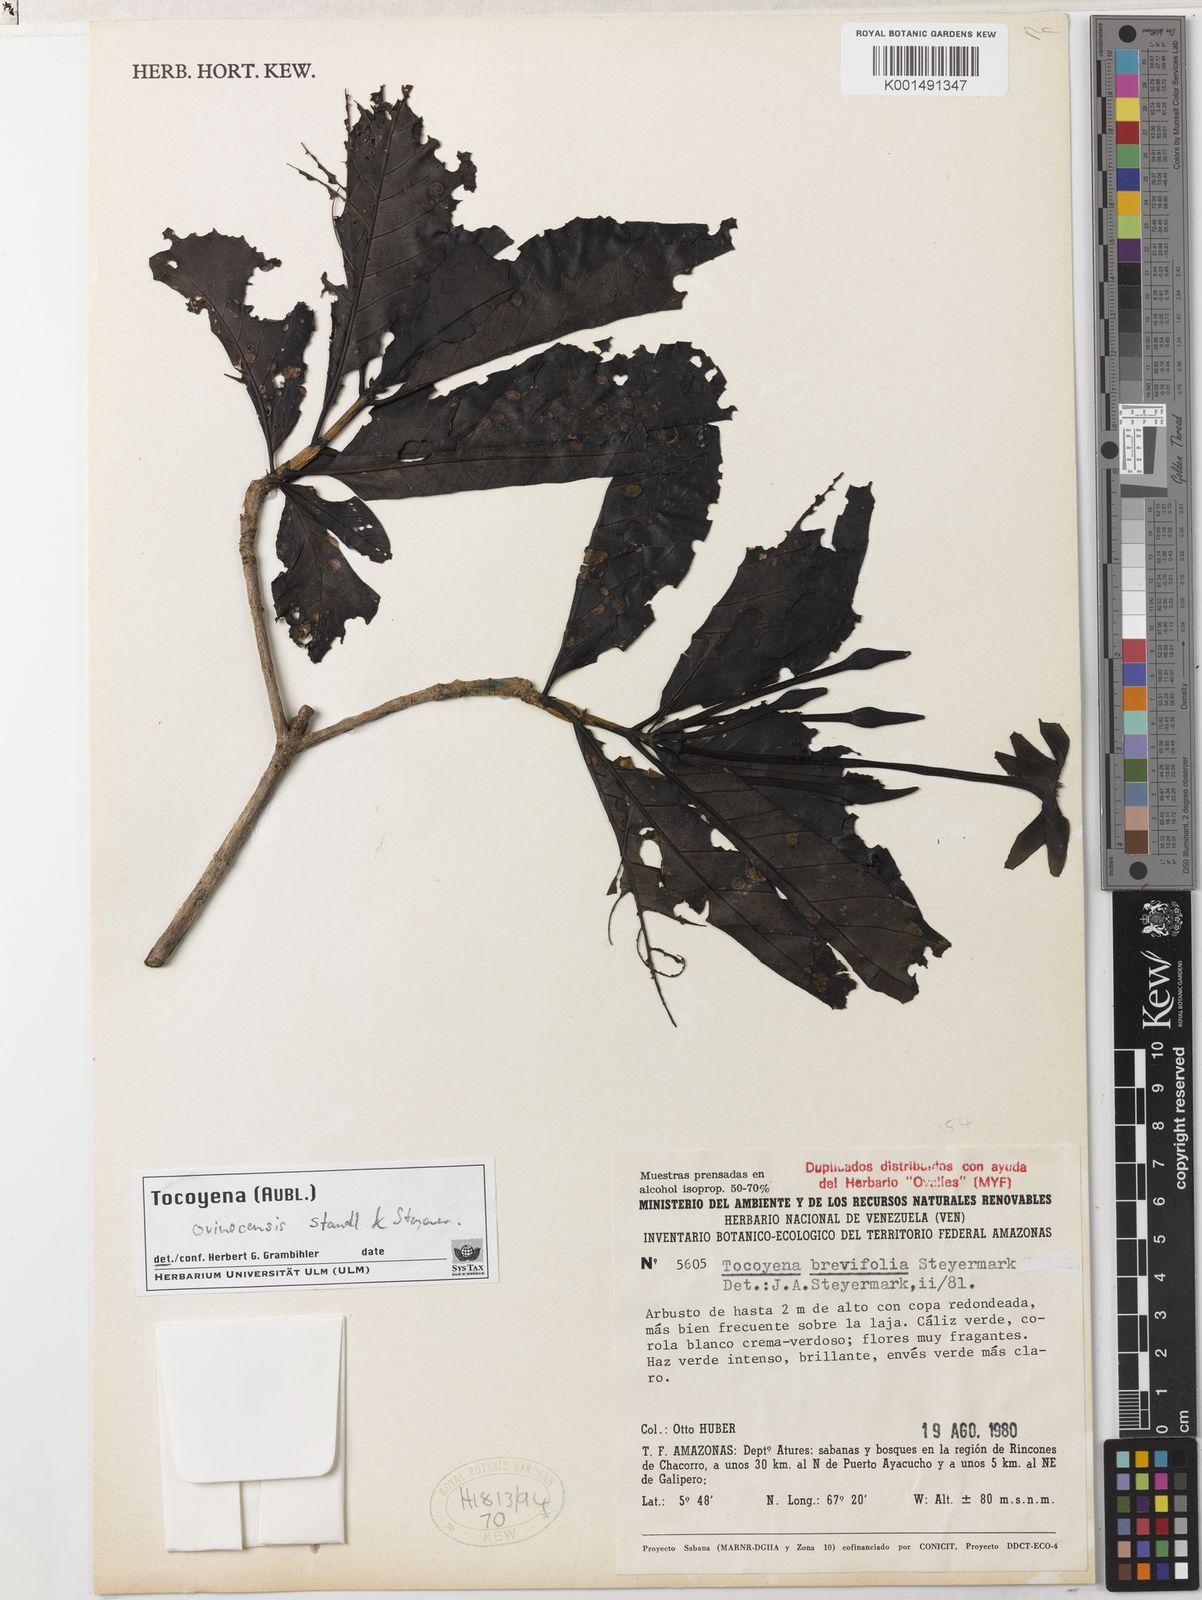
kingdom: Plantae
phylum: Tracheophyta
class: Magnoliopsida
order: Gentianales
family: Rubiaceae
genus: Tocoyena
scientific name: Tocoyena orinocensis
